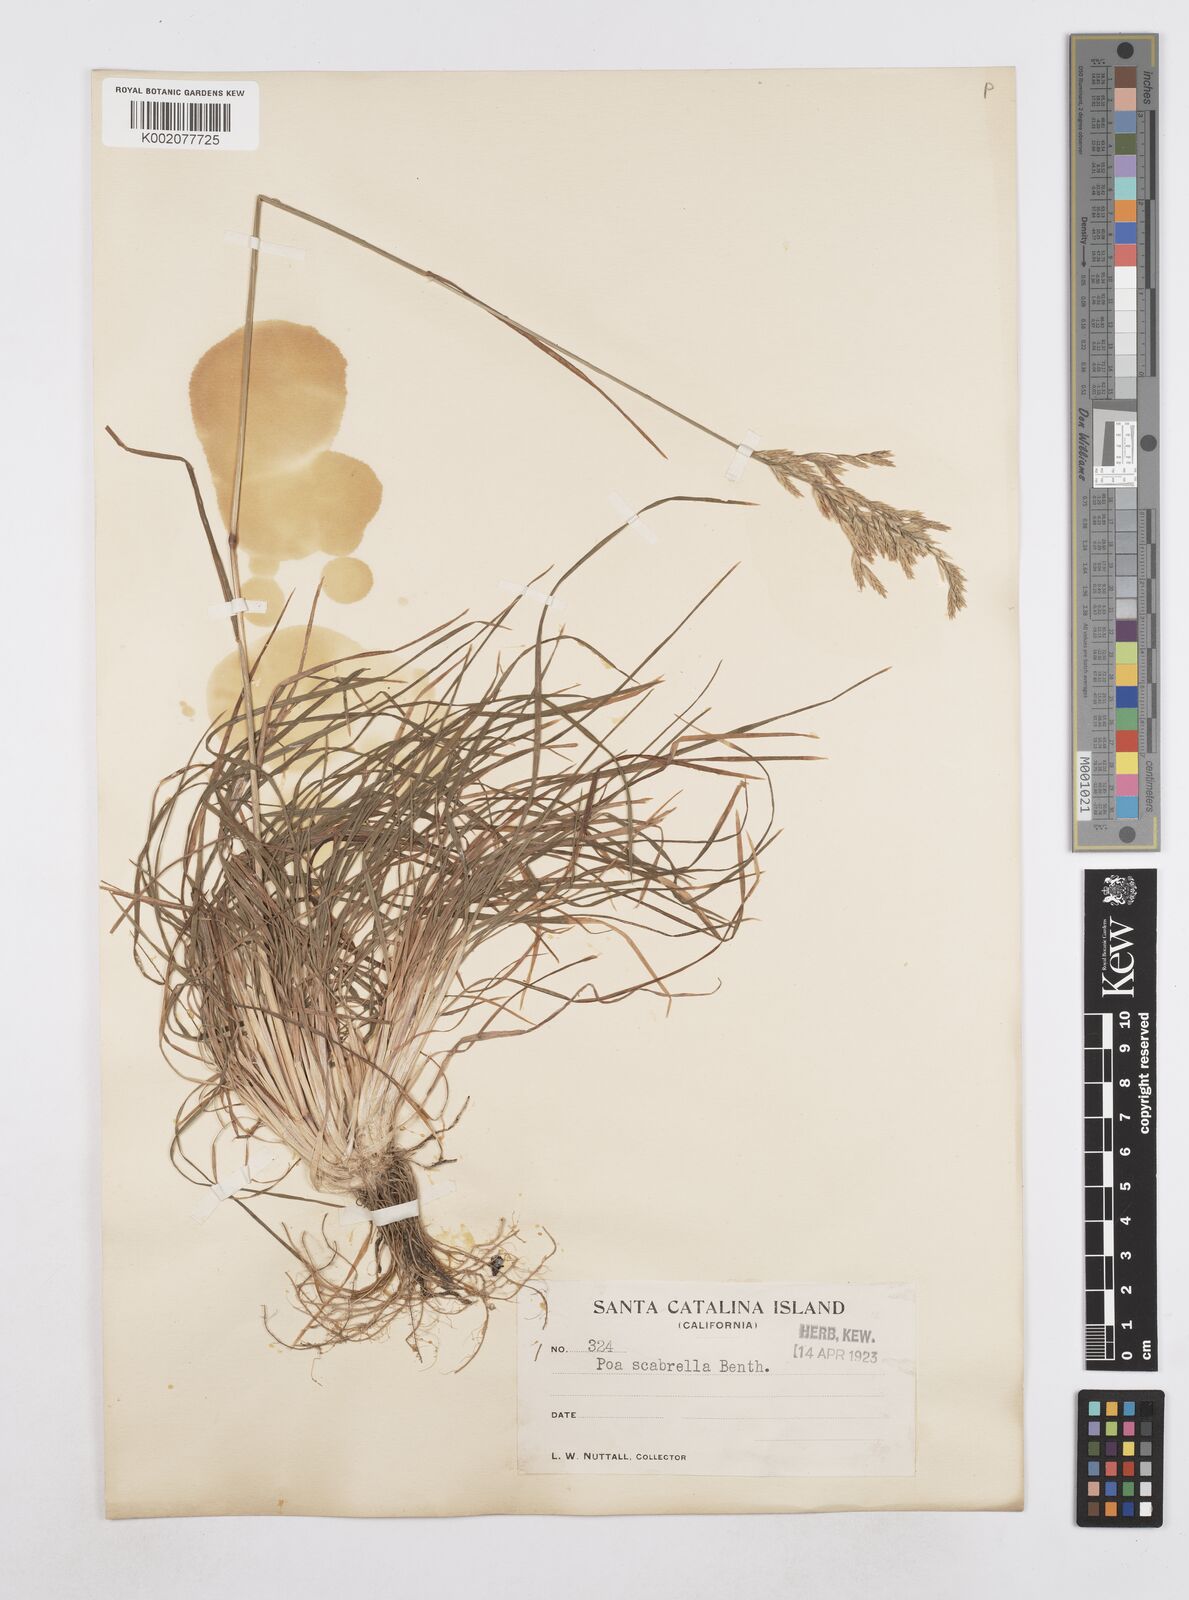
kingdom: Plantae
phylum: Tracheophyta
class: Liliopsida
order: Poales
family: Poaceae
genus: Poa
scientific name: Poa secunda
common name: Sandberg bluegrass
